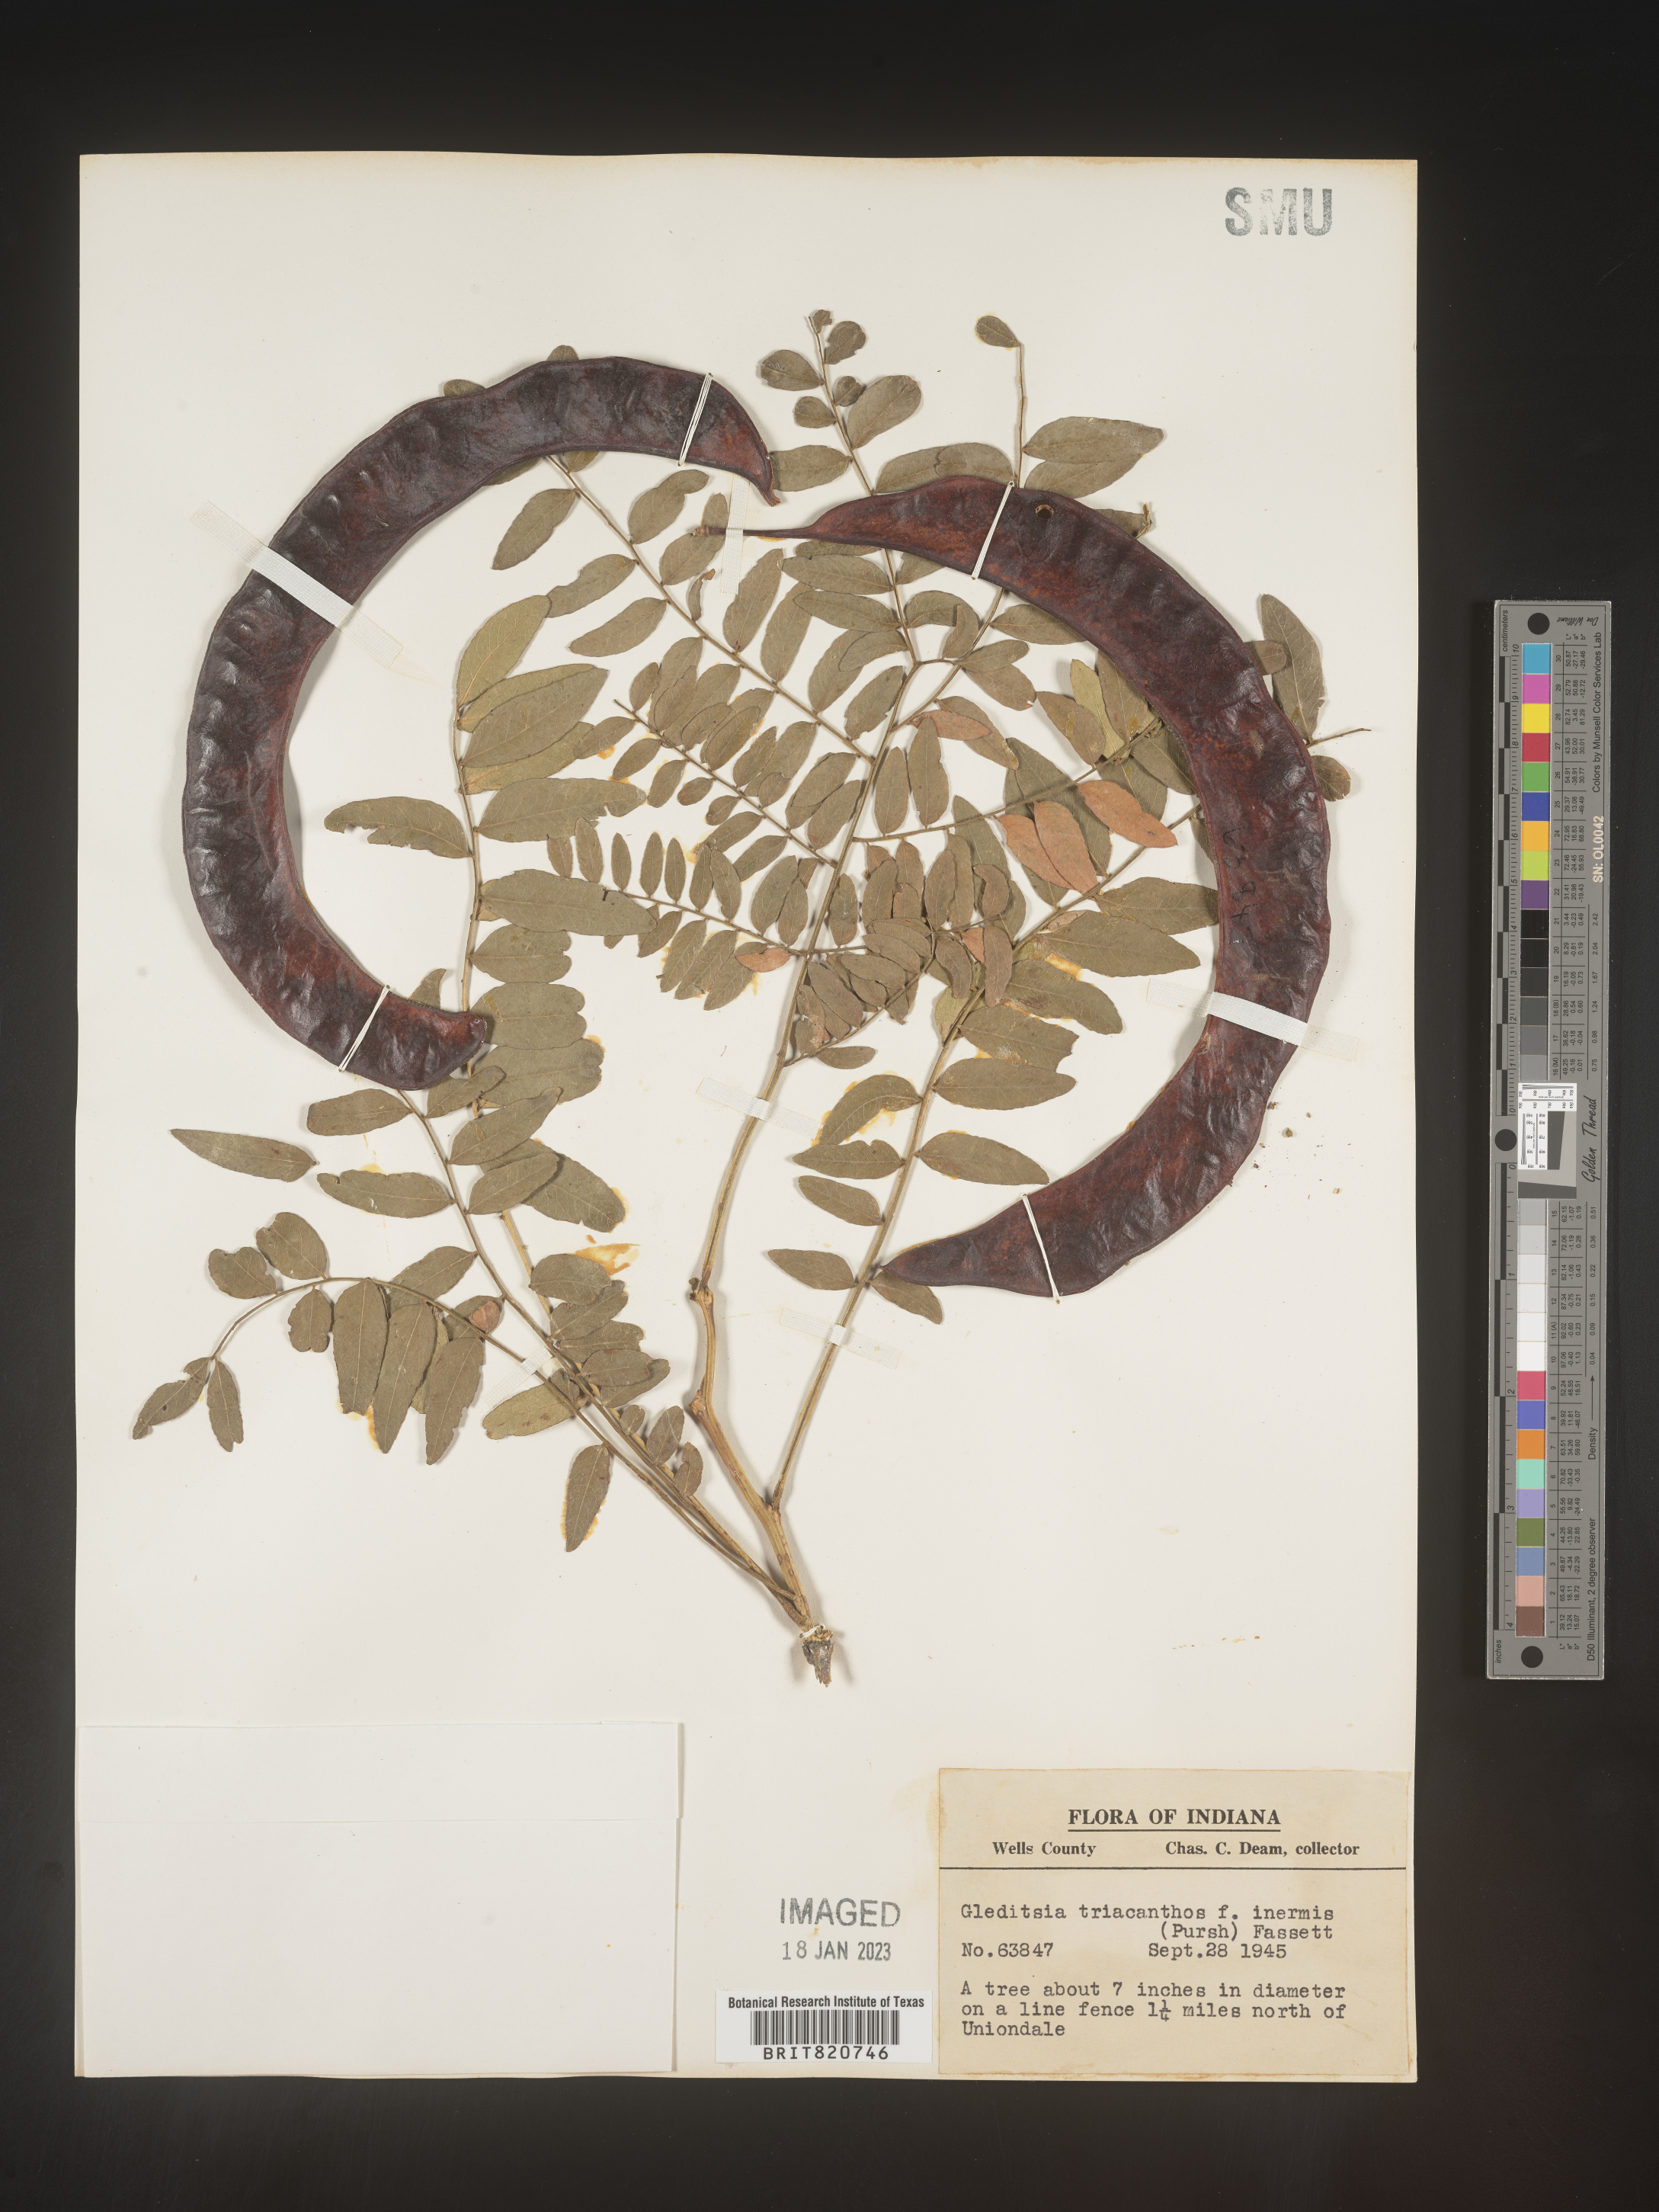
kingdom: Plantae
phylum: Tracheophyta
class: Magnoliopsida
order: Fabales
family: Fabaceae
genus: Gleditsia
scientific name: Gleditsia triacanthos
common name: Common honeylocust
